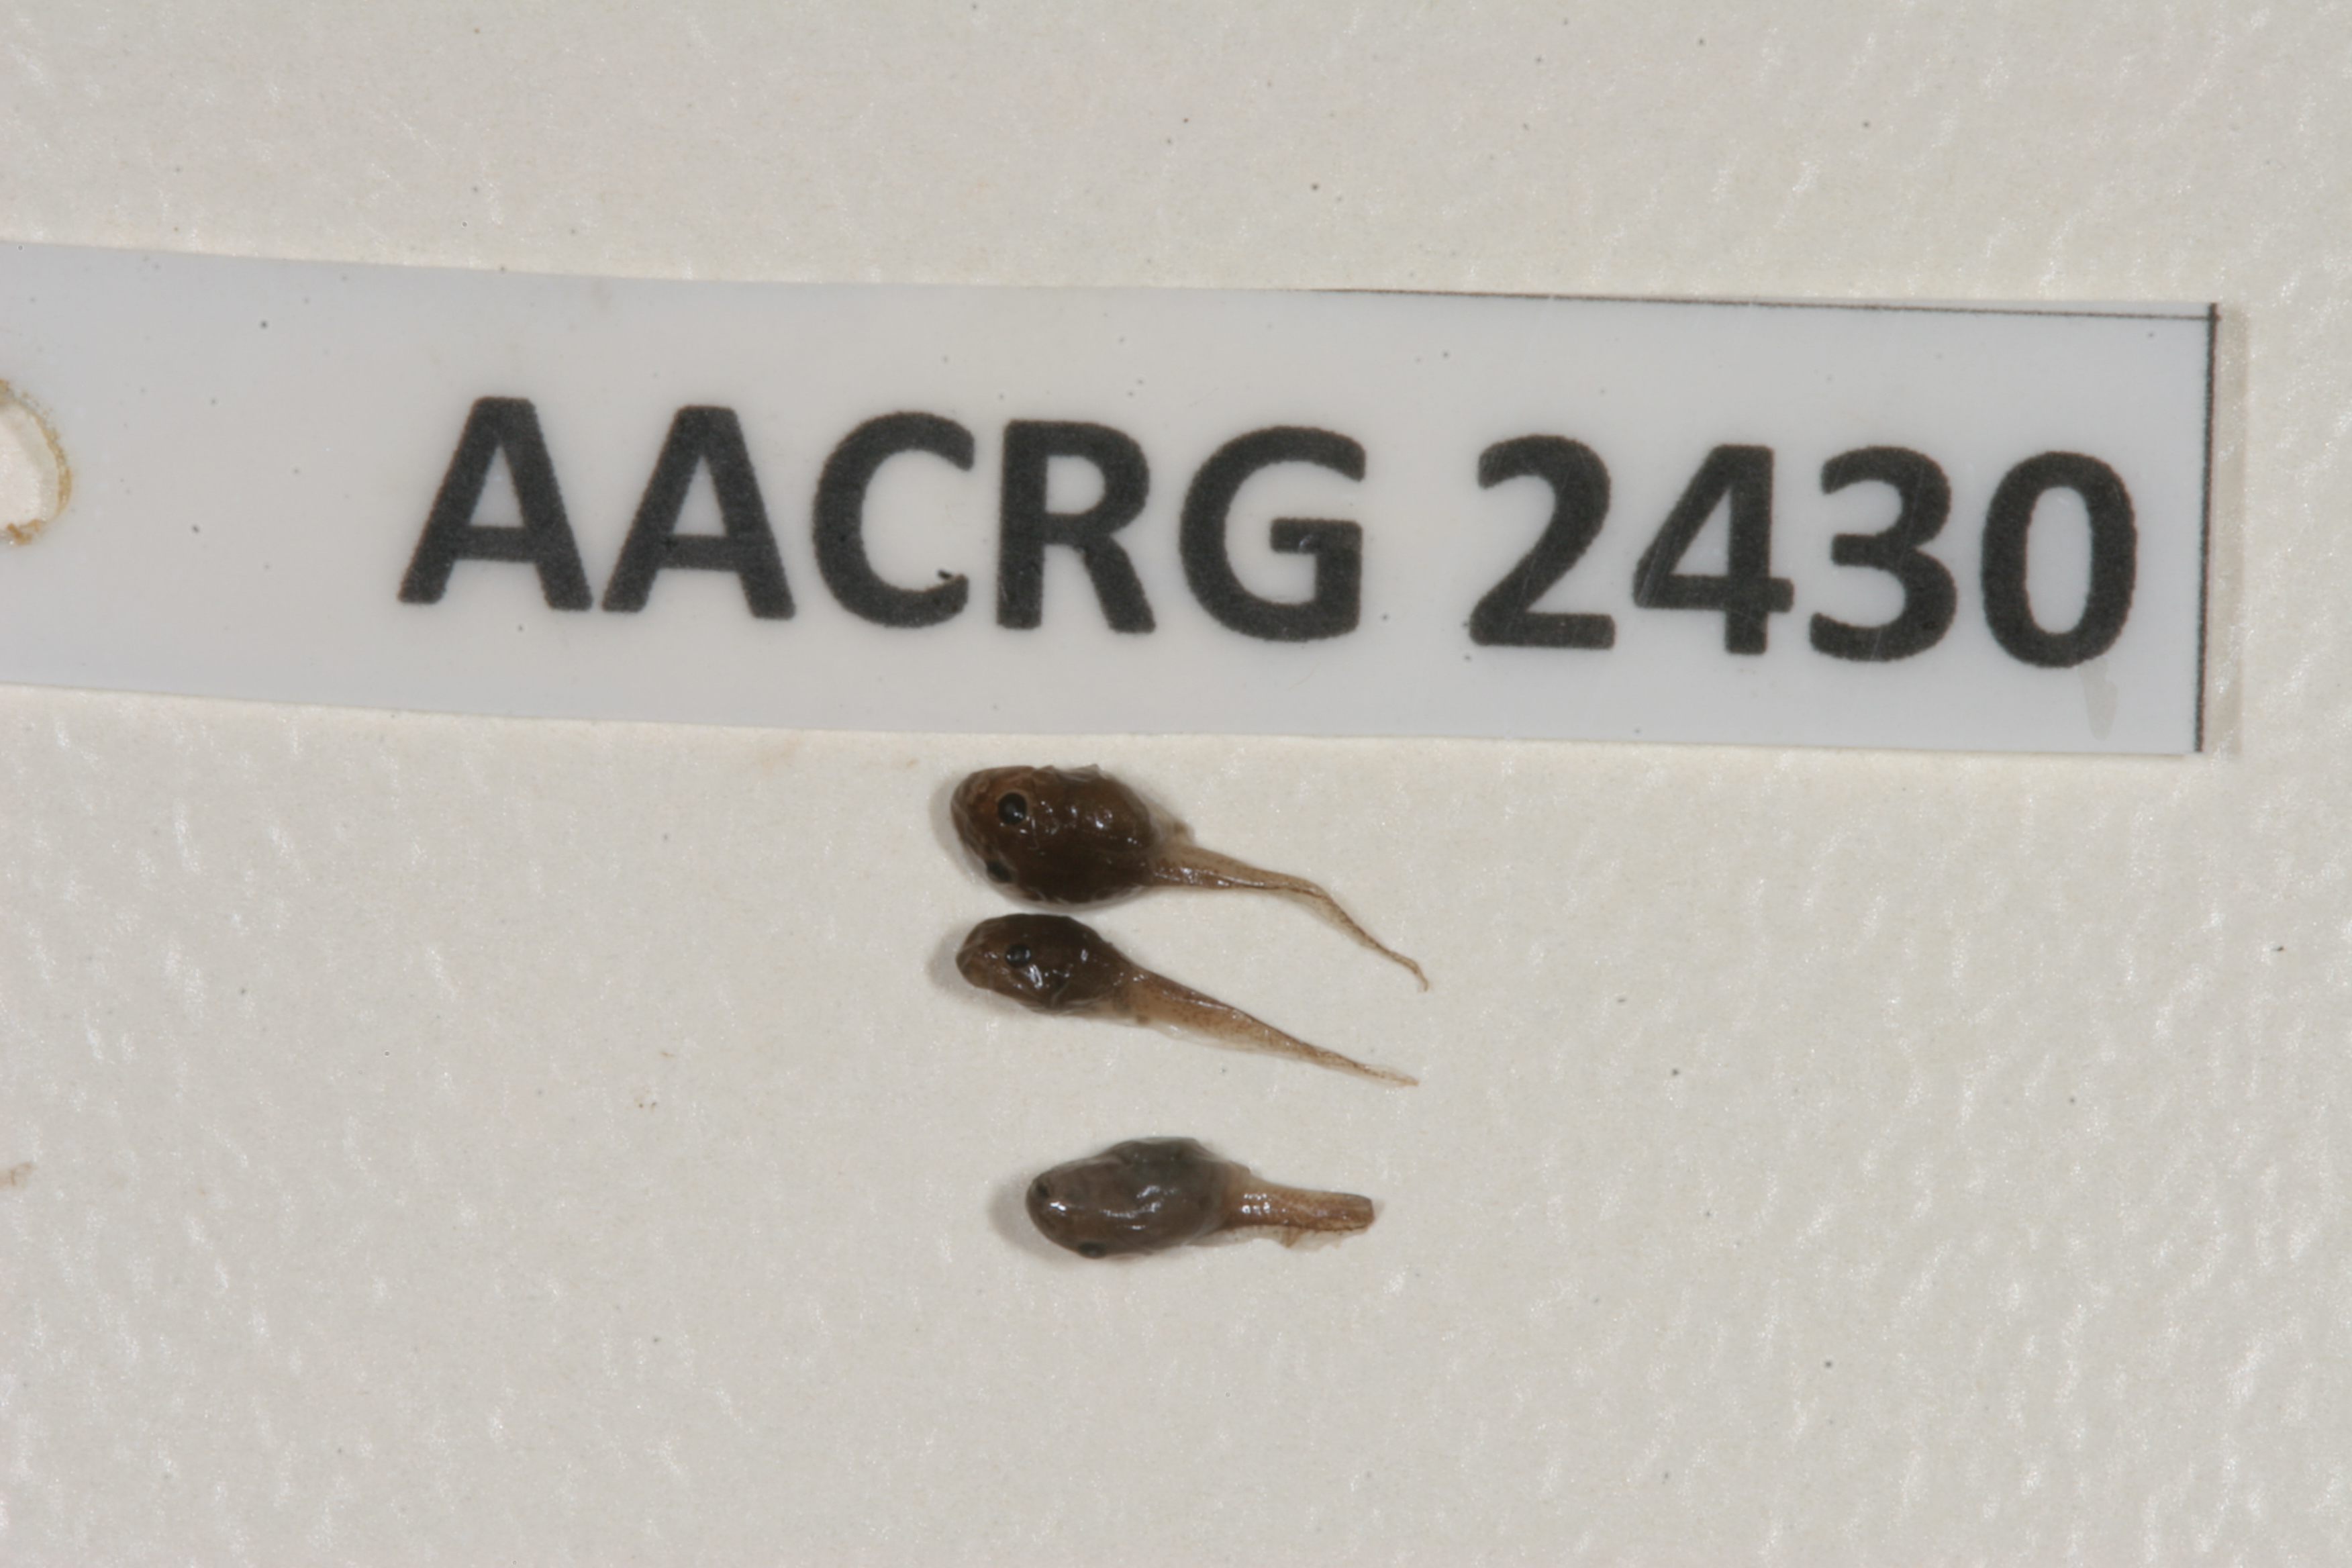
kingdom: Animalia
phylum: Chordata
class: Amphibia
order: Anura
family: Ptychadenidae
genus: Ptychadena
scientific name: Ptychadena guibei
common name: Guibe's grassland frog
